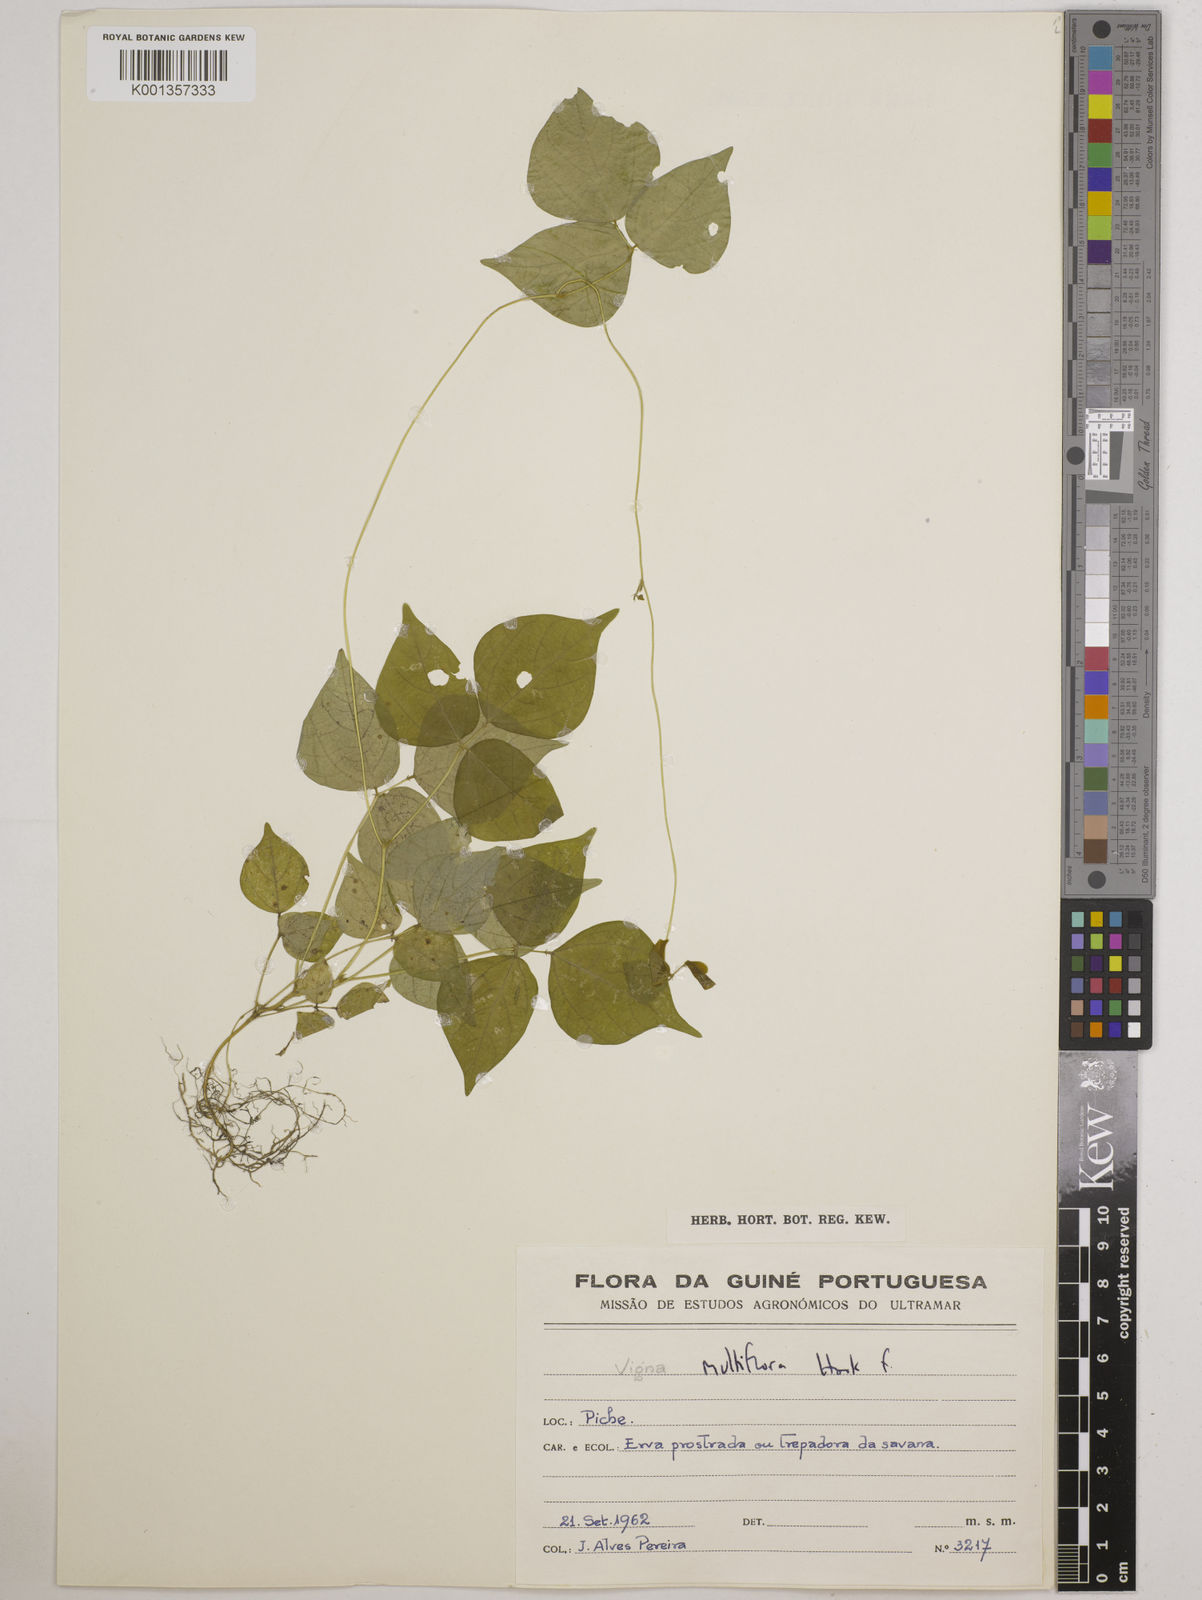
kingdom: Plantae
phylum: Tracheophyta
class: Magnoliopsida
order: Fabales
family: Fabaceae
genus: Vigna
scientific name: Vigna gracilis
